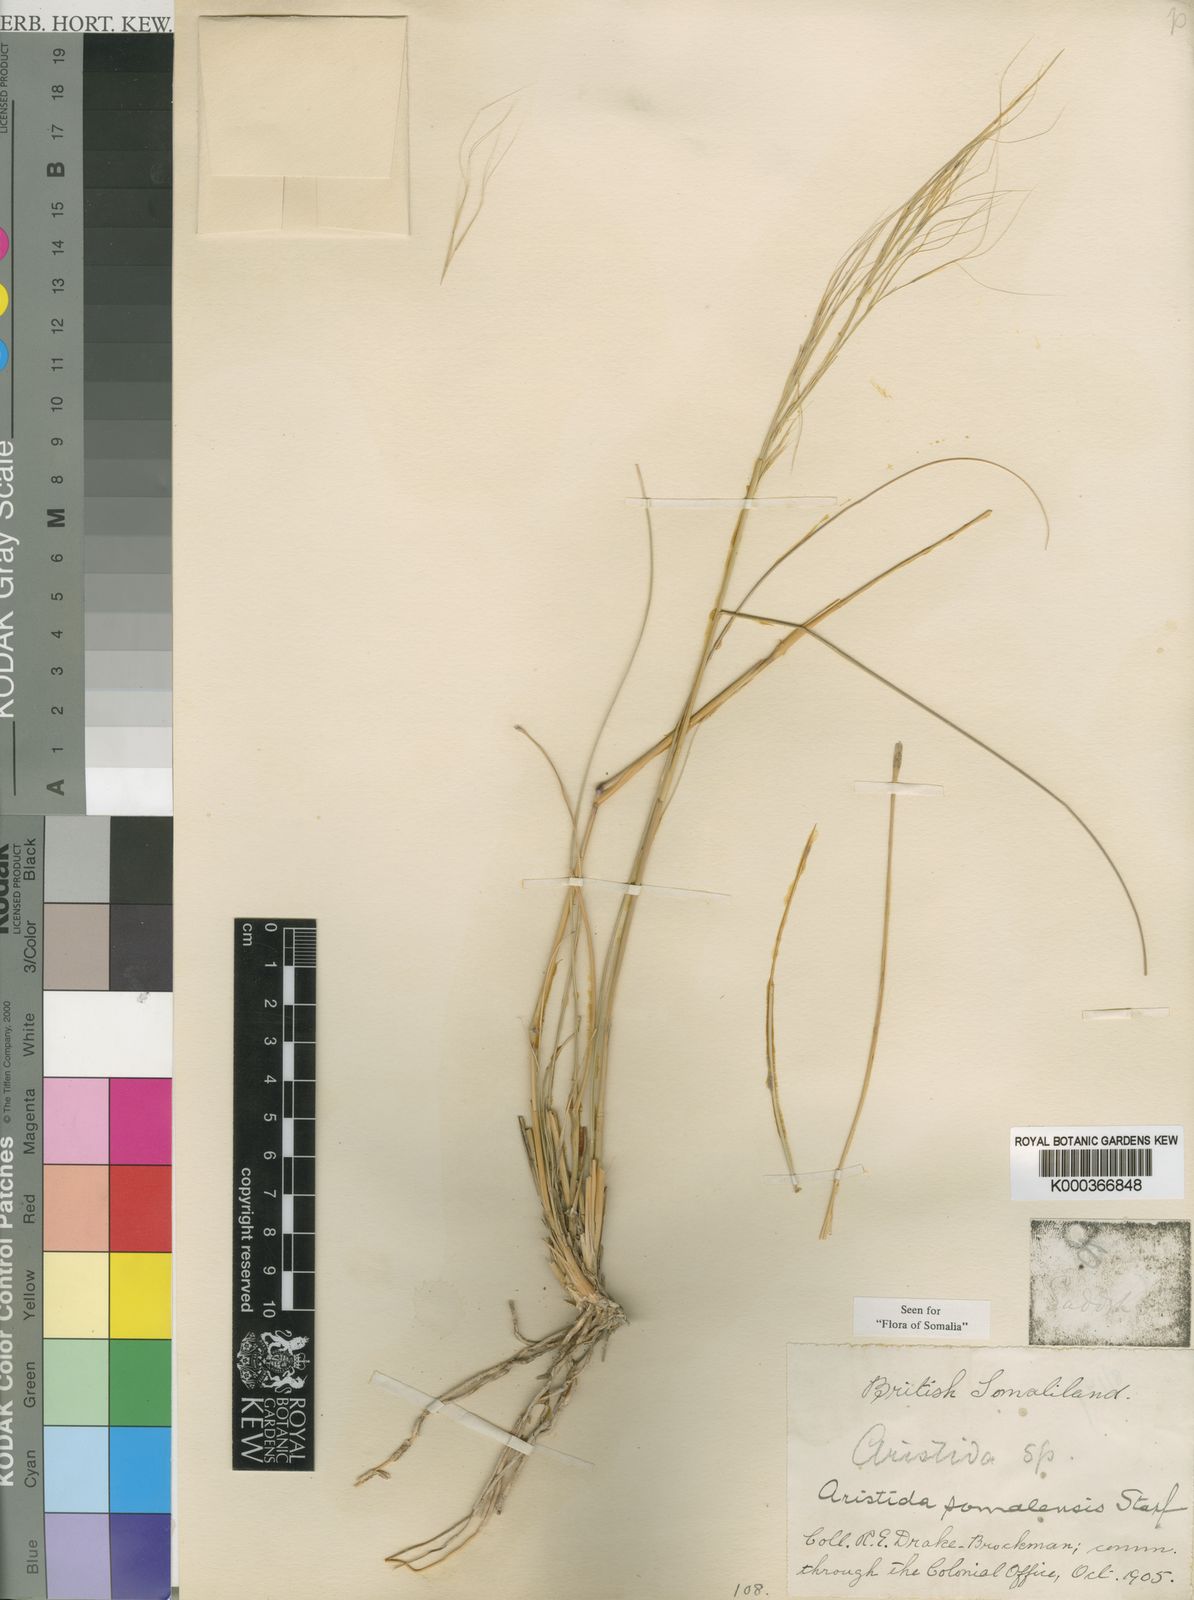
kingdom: Plantae
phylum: Tracheophyta
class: Liliopsida
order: Poales
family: Poaceae
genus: Aristida
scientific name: Aristida somalensis
